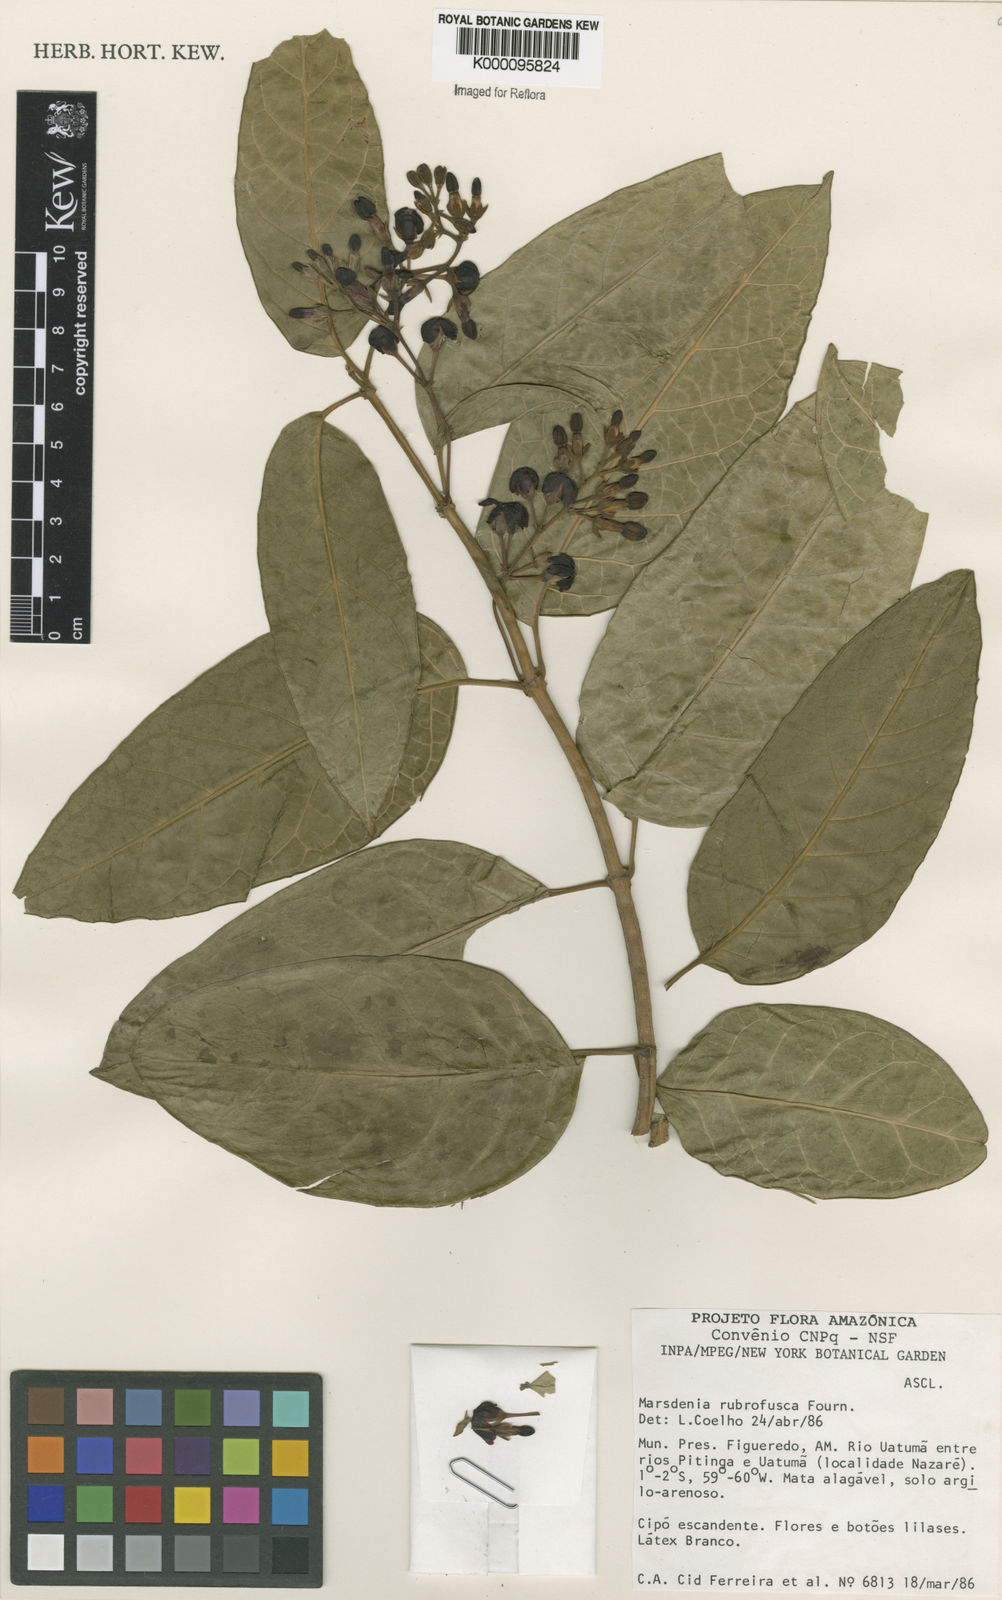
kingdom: Plantae
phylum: Tracheophyta
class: Magnoliopsida
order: Gentianales
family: Apocynaceae
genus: Ruehssia
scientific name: Ruehssia rubrofusca
